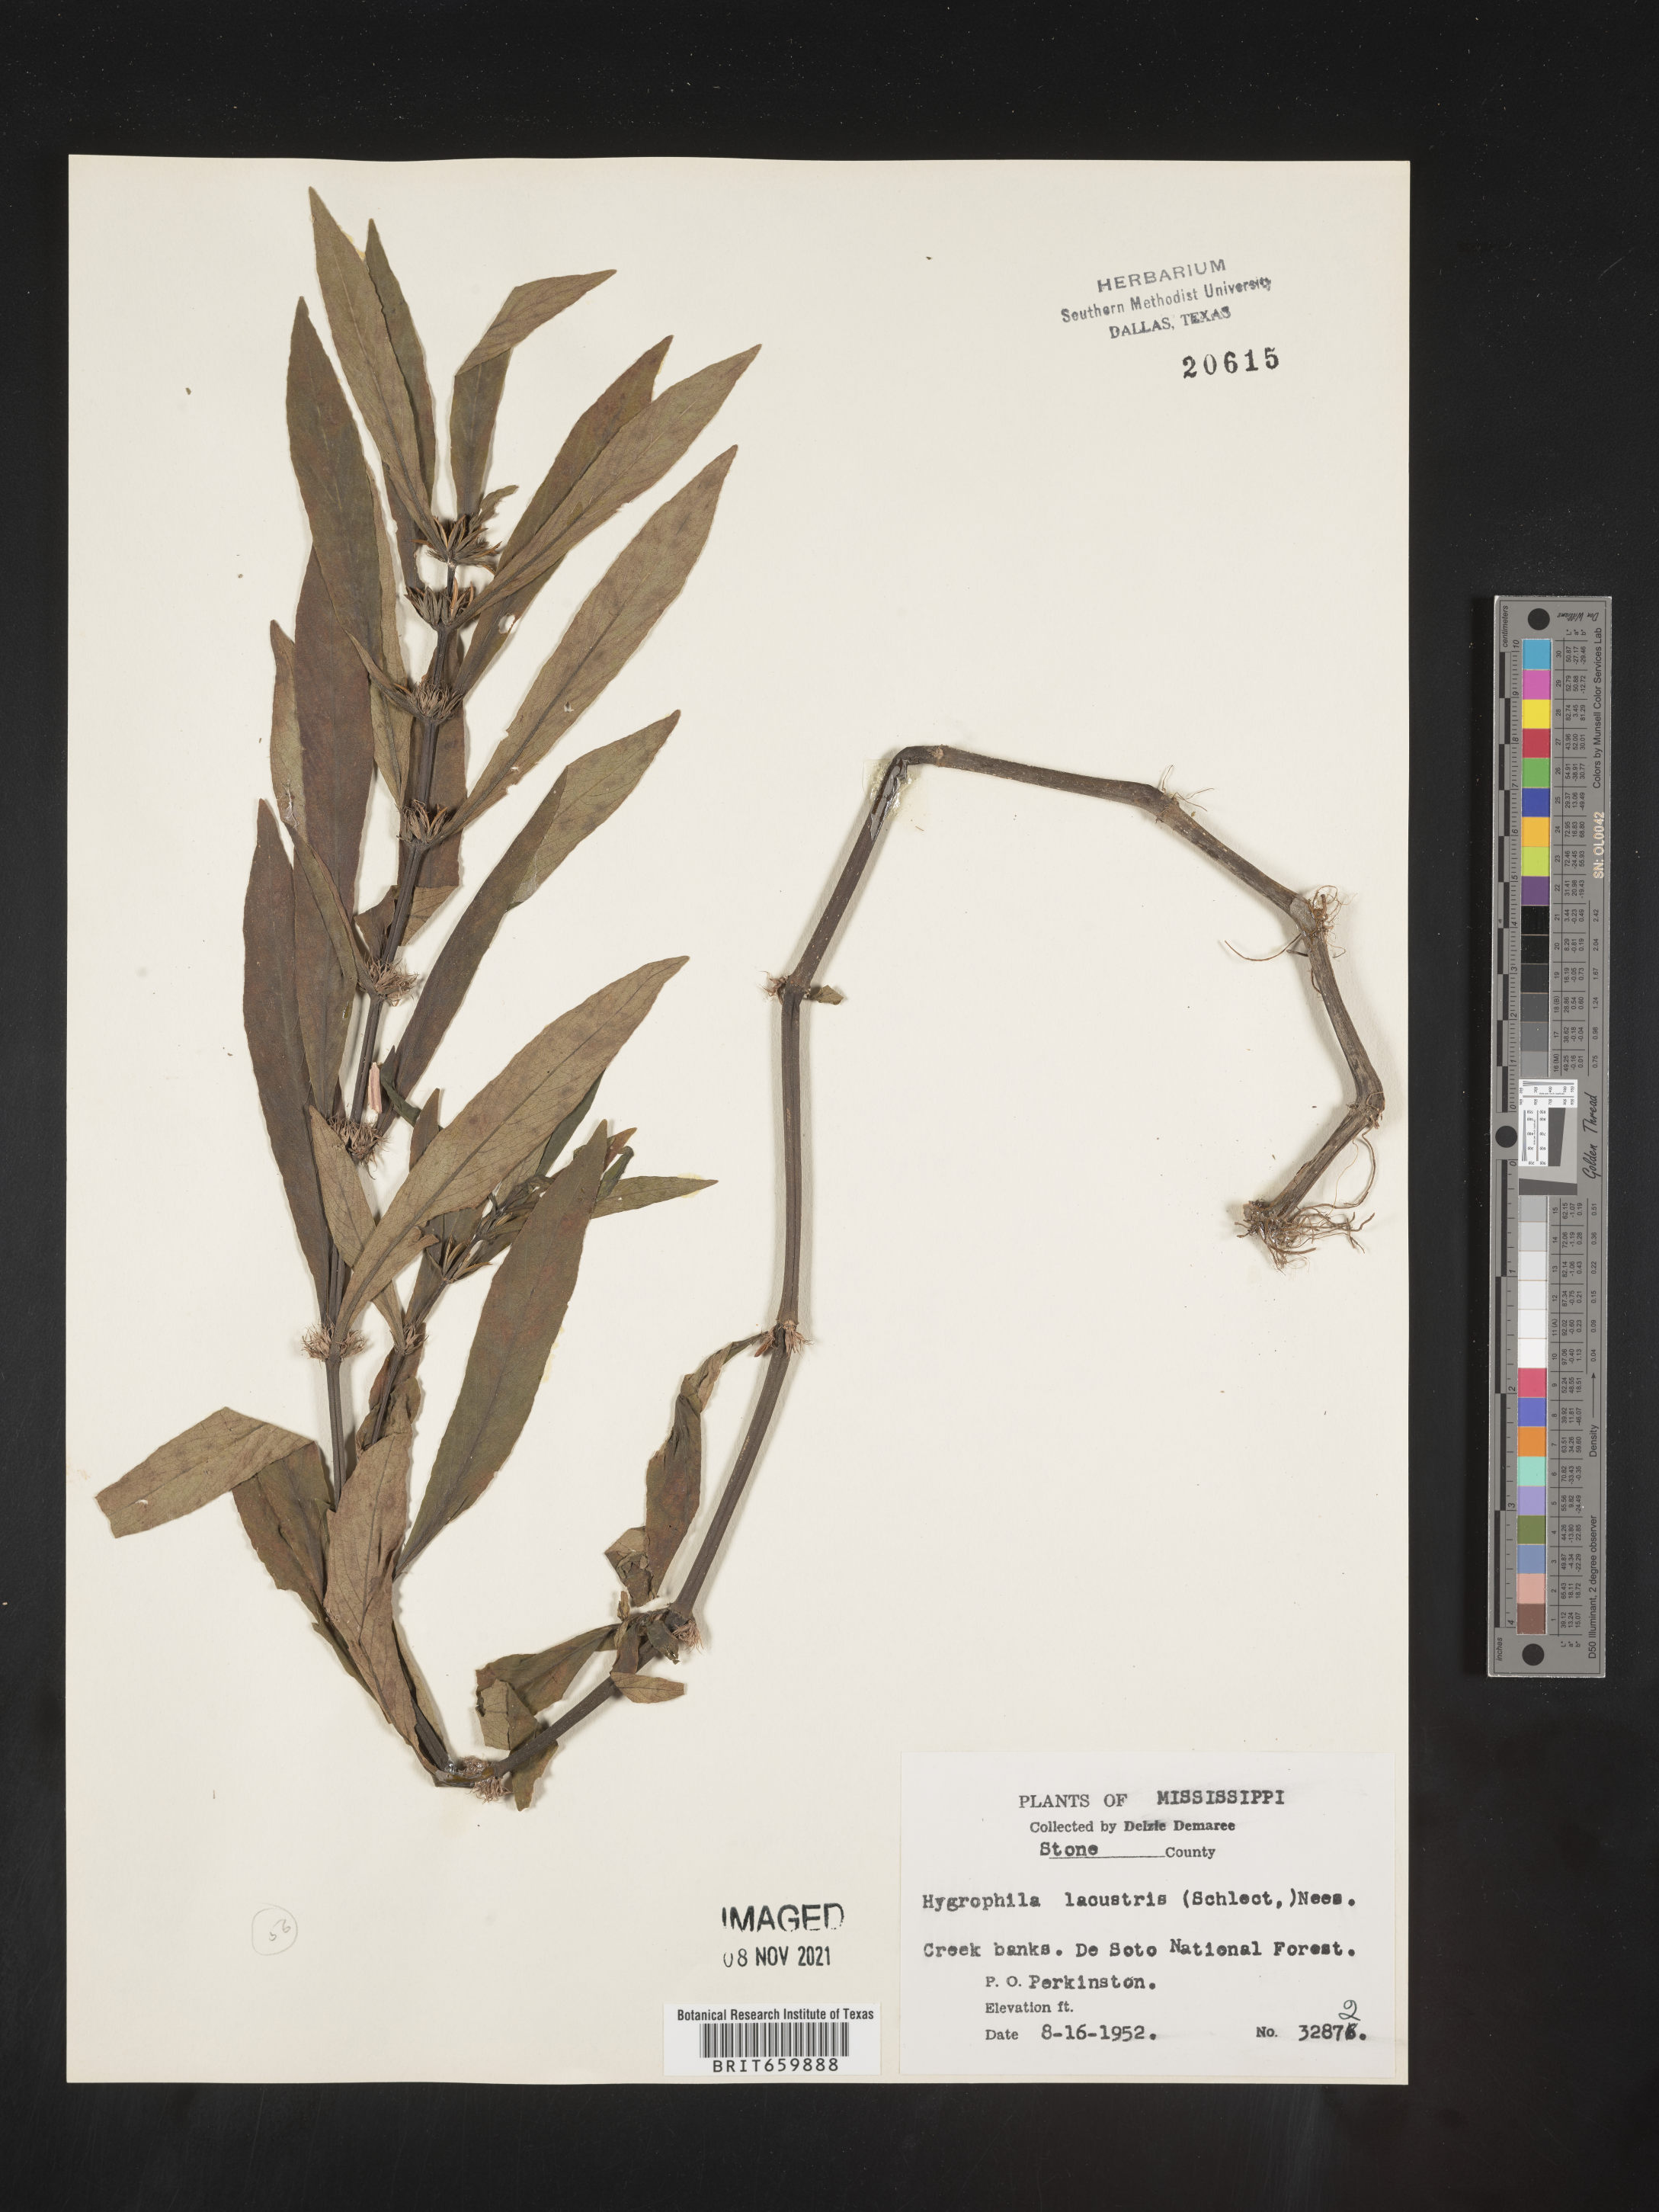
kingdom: Plantae
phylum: Tracheophyta
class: Magnoliopsida
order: Lamiales
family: Acanthaceae
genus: Hygrophila
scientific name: Hygrophila costata
